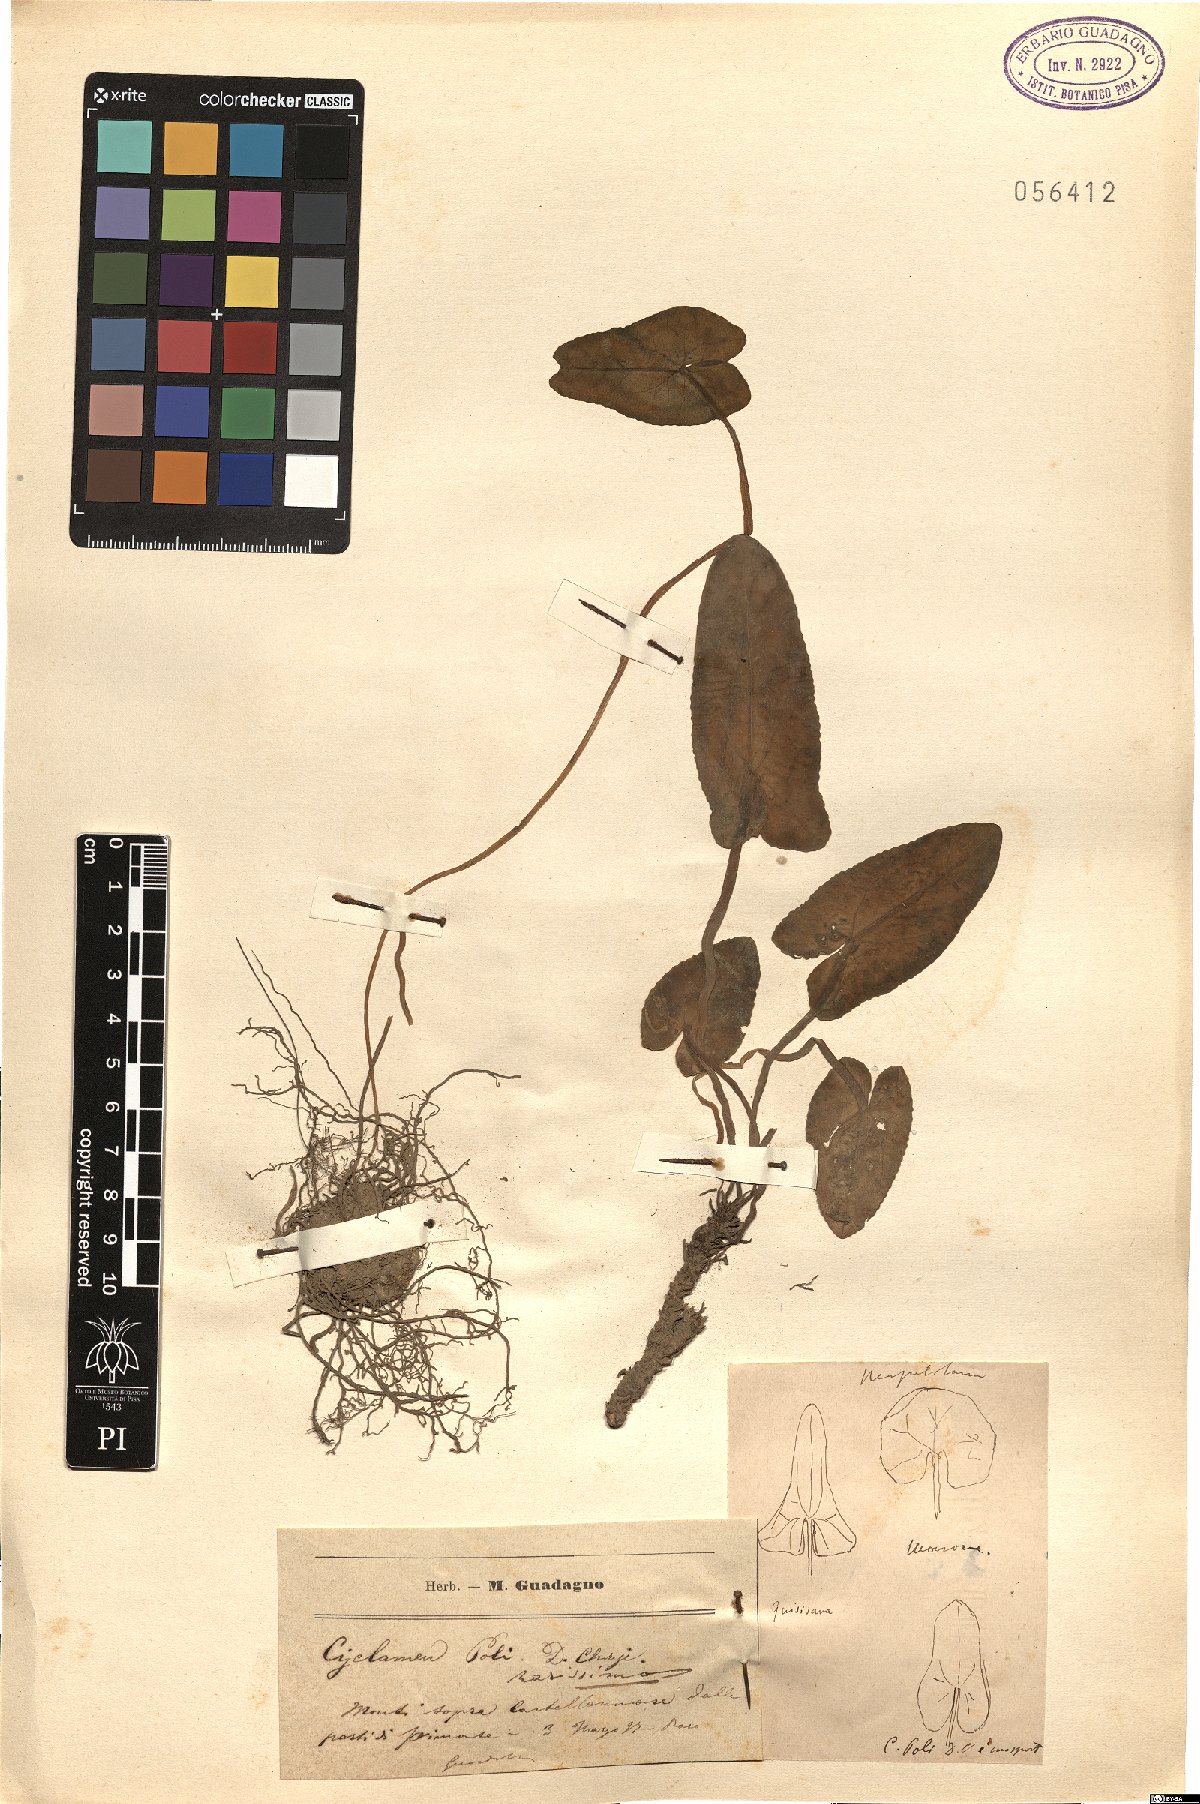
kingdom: Plantae
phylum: Tracheophyta
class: Magnoliopsida
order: Ericales
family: Primulaceae
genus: Cyclamen
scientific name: Cyclamen hederifolium
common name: Sowbread
